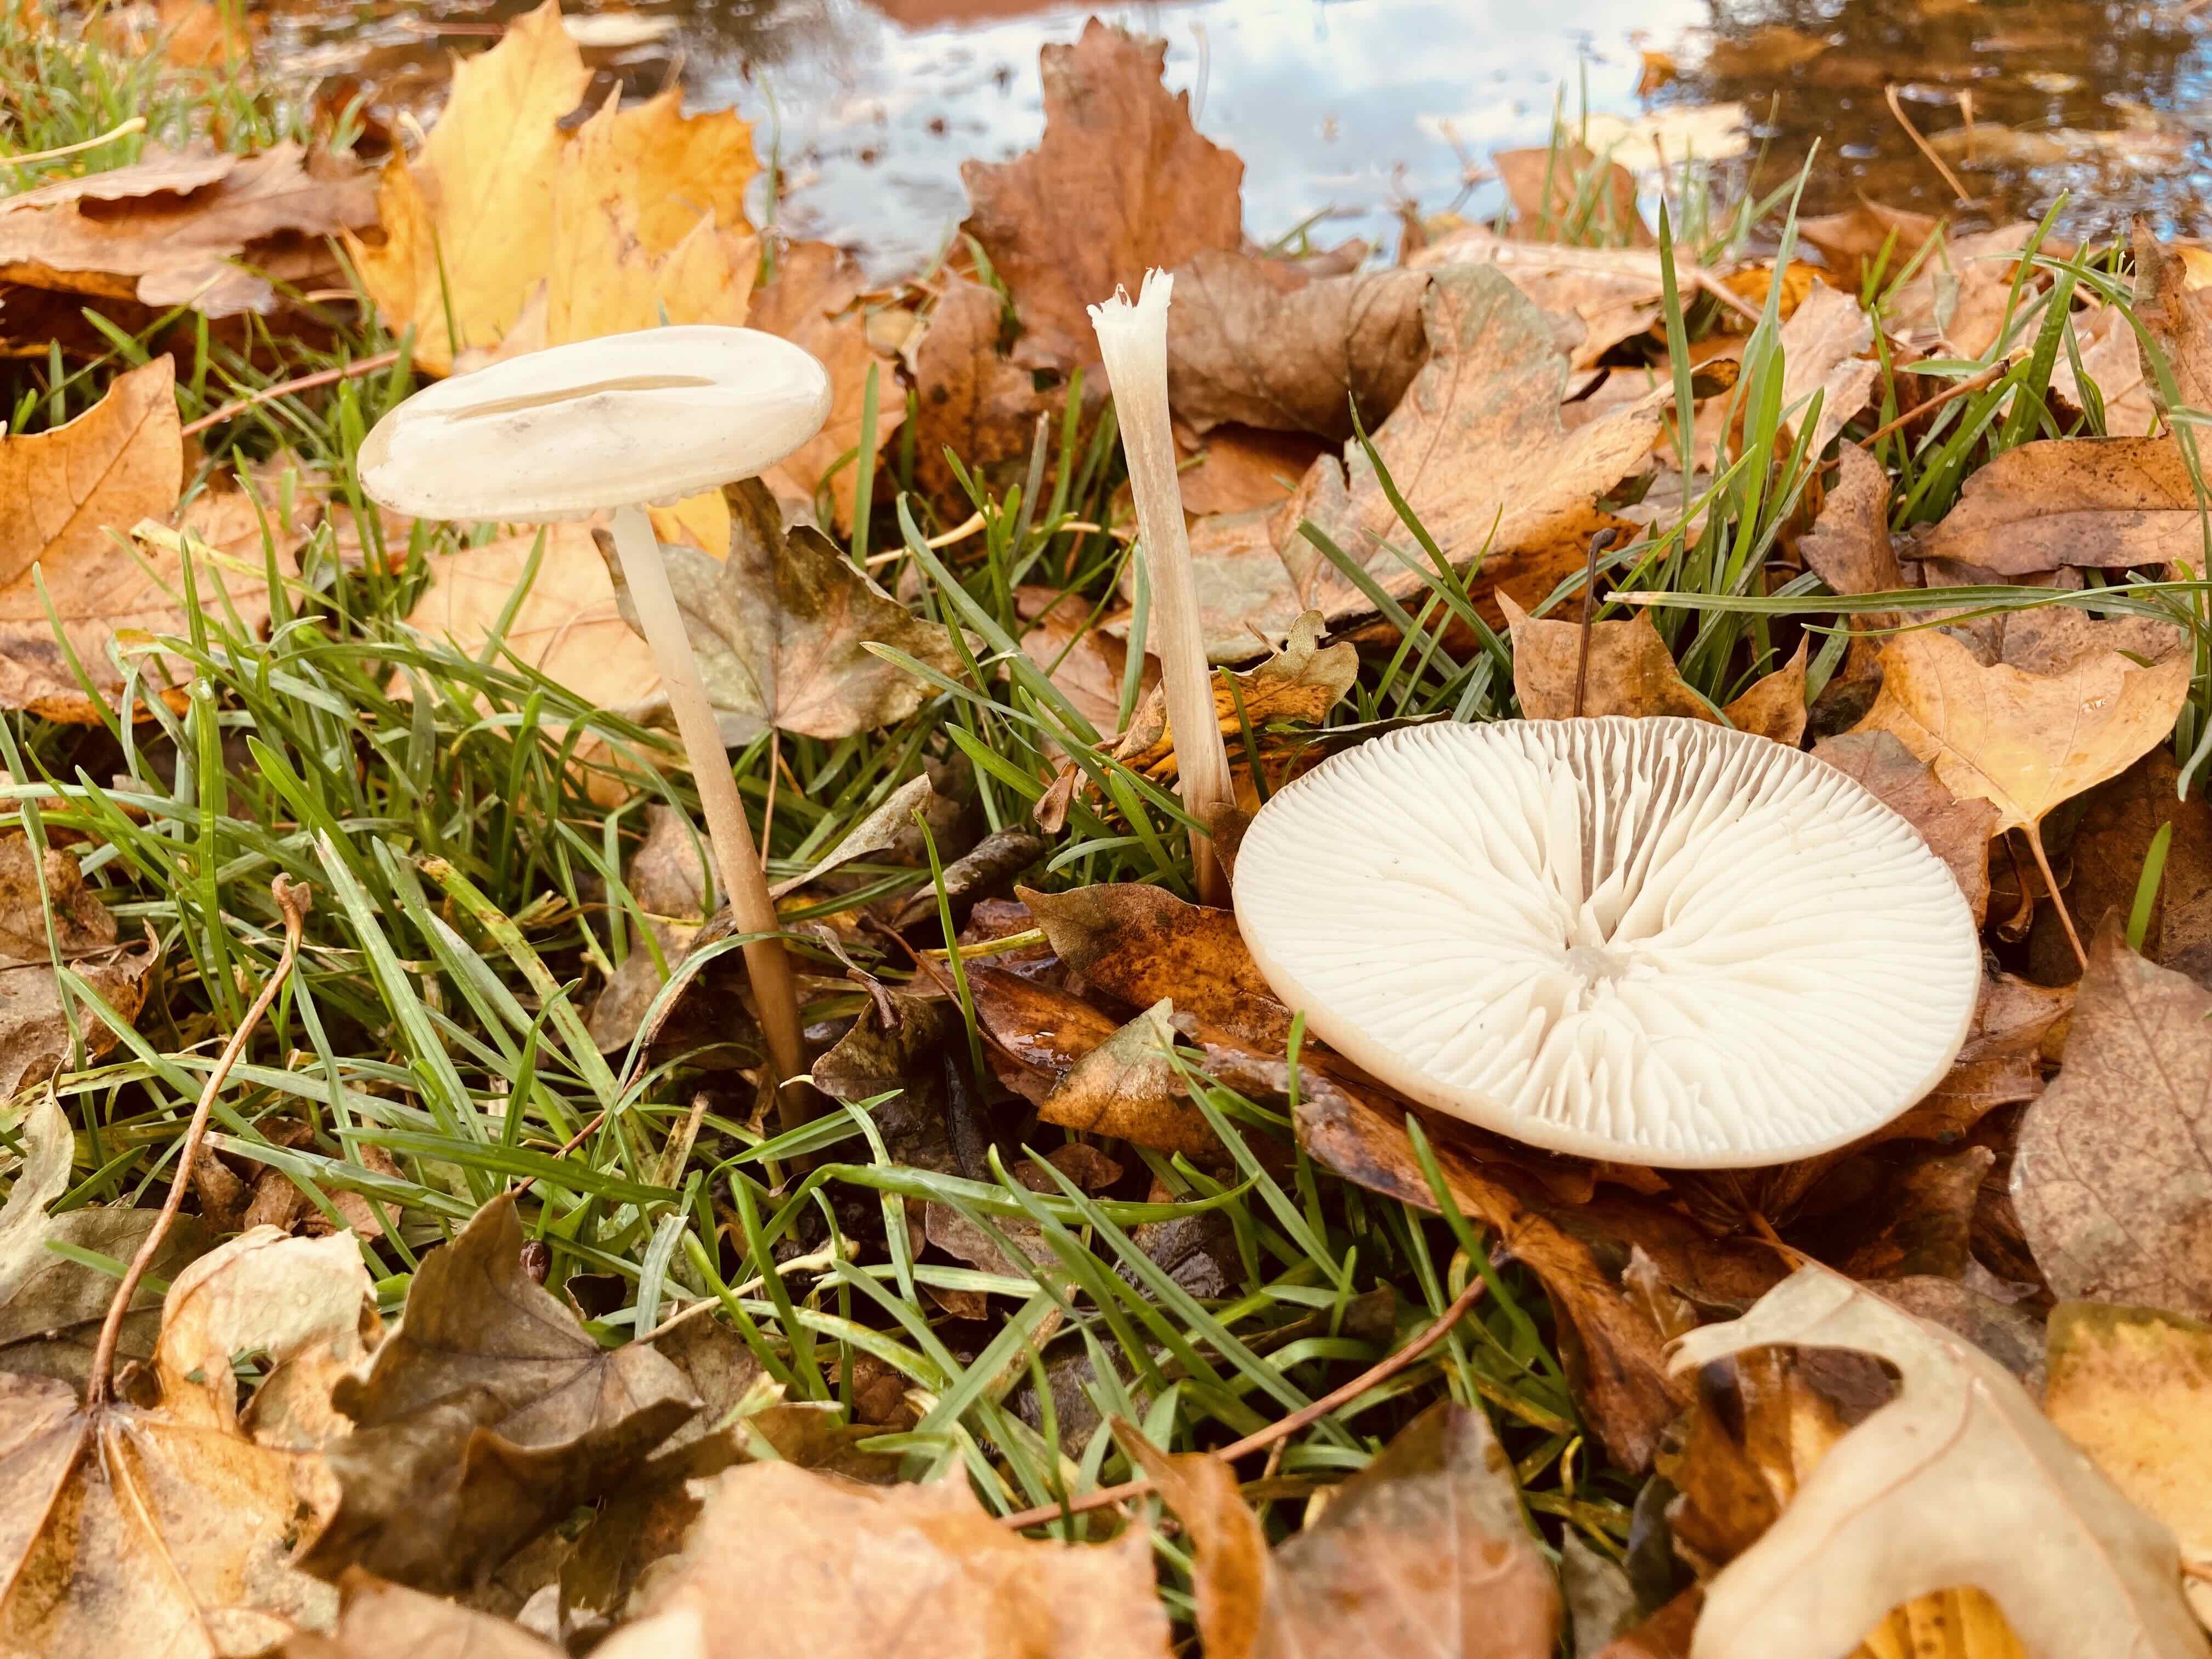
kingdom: Fungi
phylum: Basidiomycota
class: Agaricomycetes
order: Agaricales
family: Physalacriaceae
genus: Hymenopellis
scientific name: Hymenopellis radicata
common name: almindelig pælerodshat
